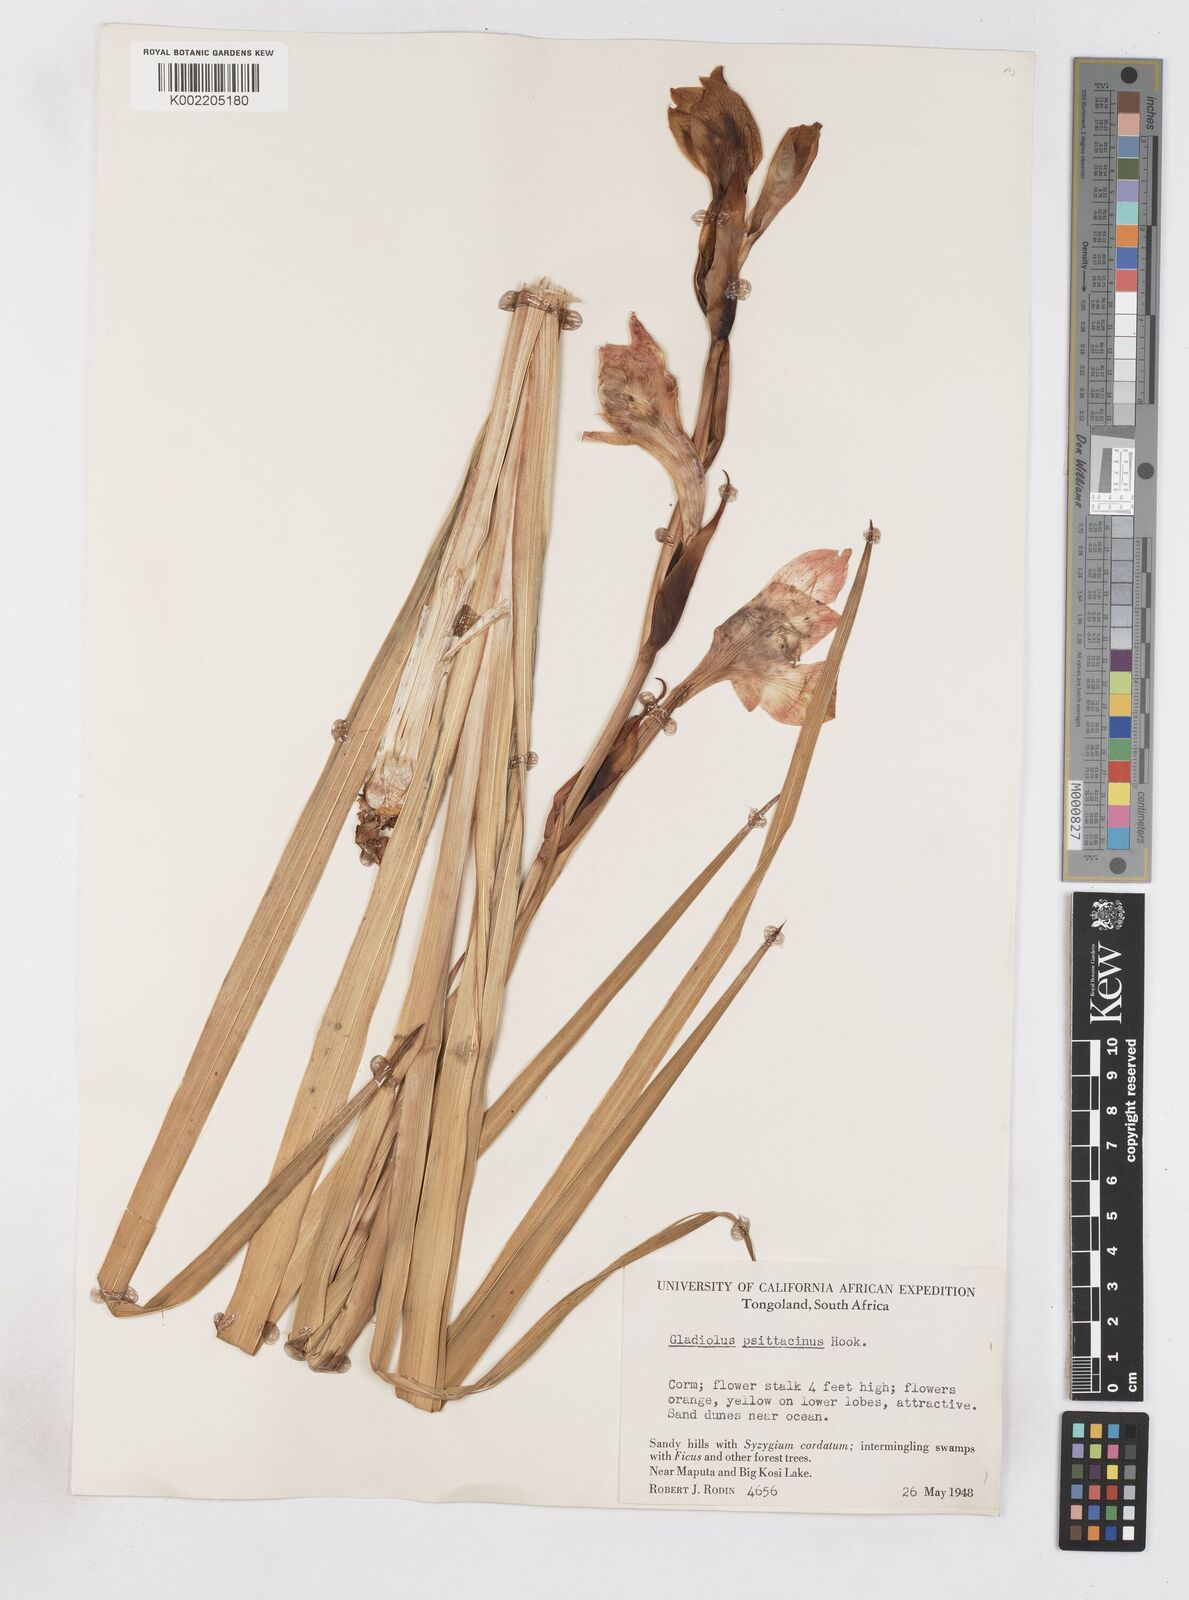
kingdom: Plantae
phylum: Tracheophyta
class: Liliopsida
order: Asparagales
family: Iridaceae
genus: Gladiolus
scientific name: Gladiolus dalenii
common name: Cornflag
